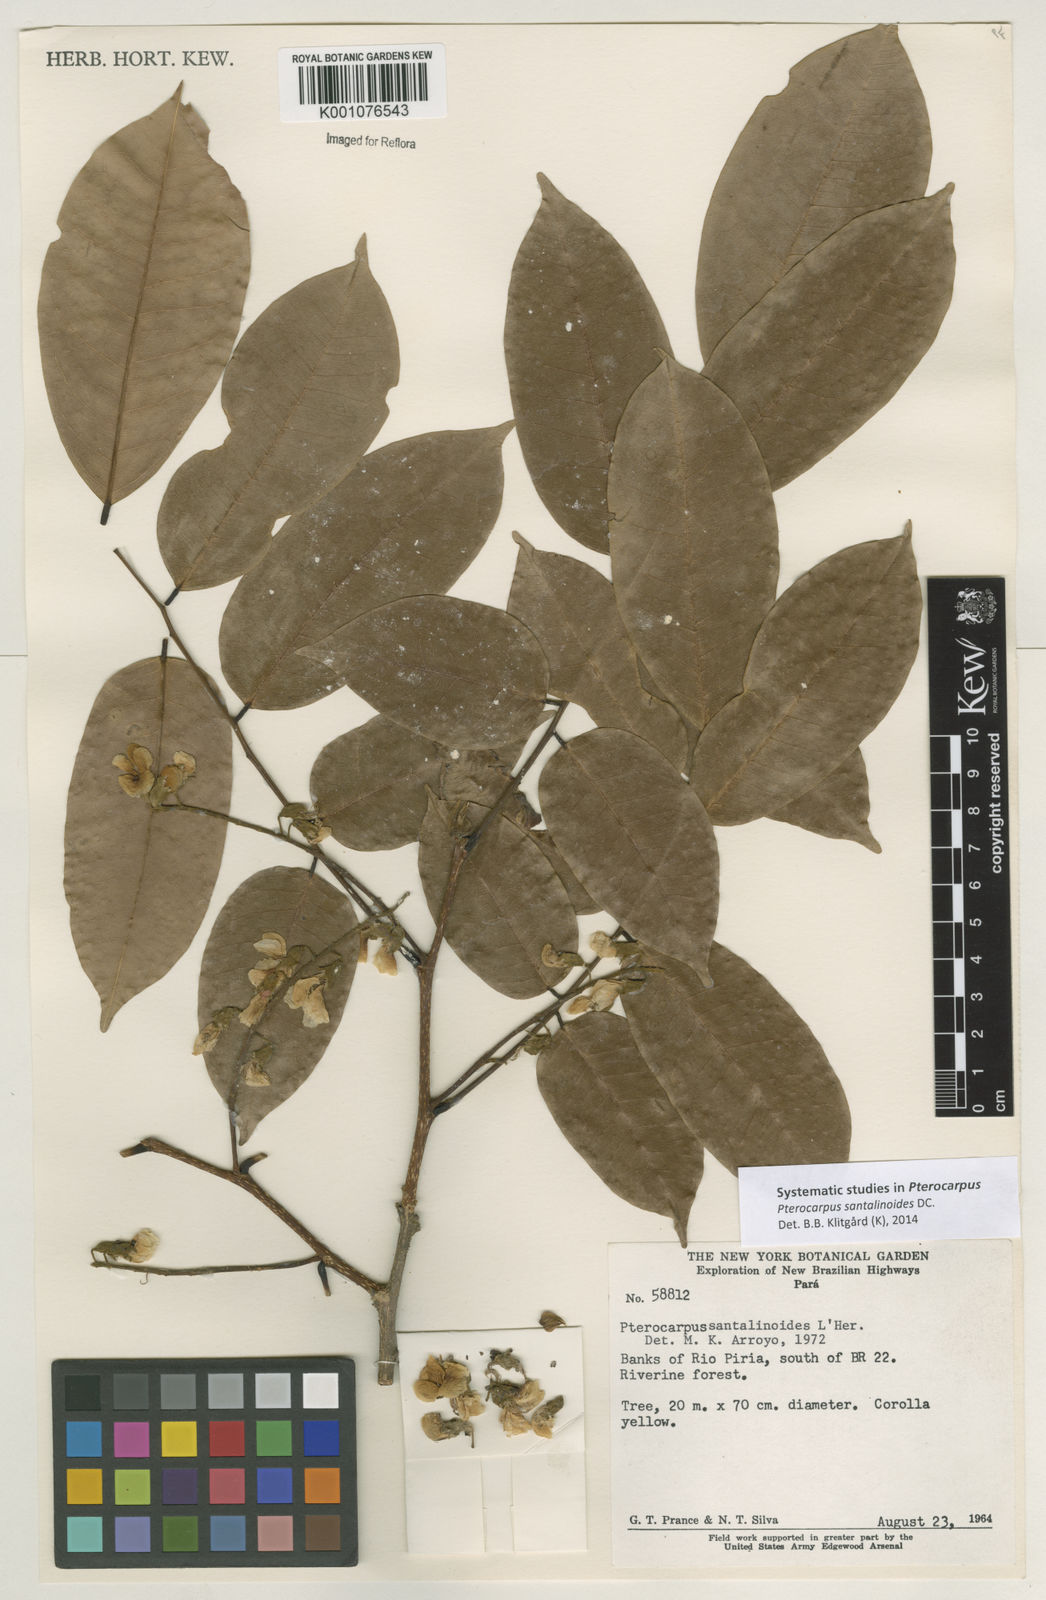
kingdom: Plantae
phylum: Tracheophyta
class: Magnoliopsida
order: Fabales
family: Fabaceae
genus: Pterocarpus
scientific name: Pterocarpus santalinoides
